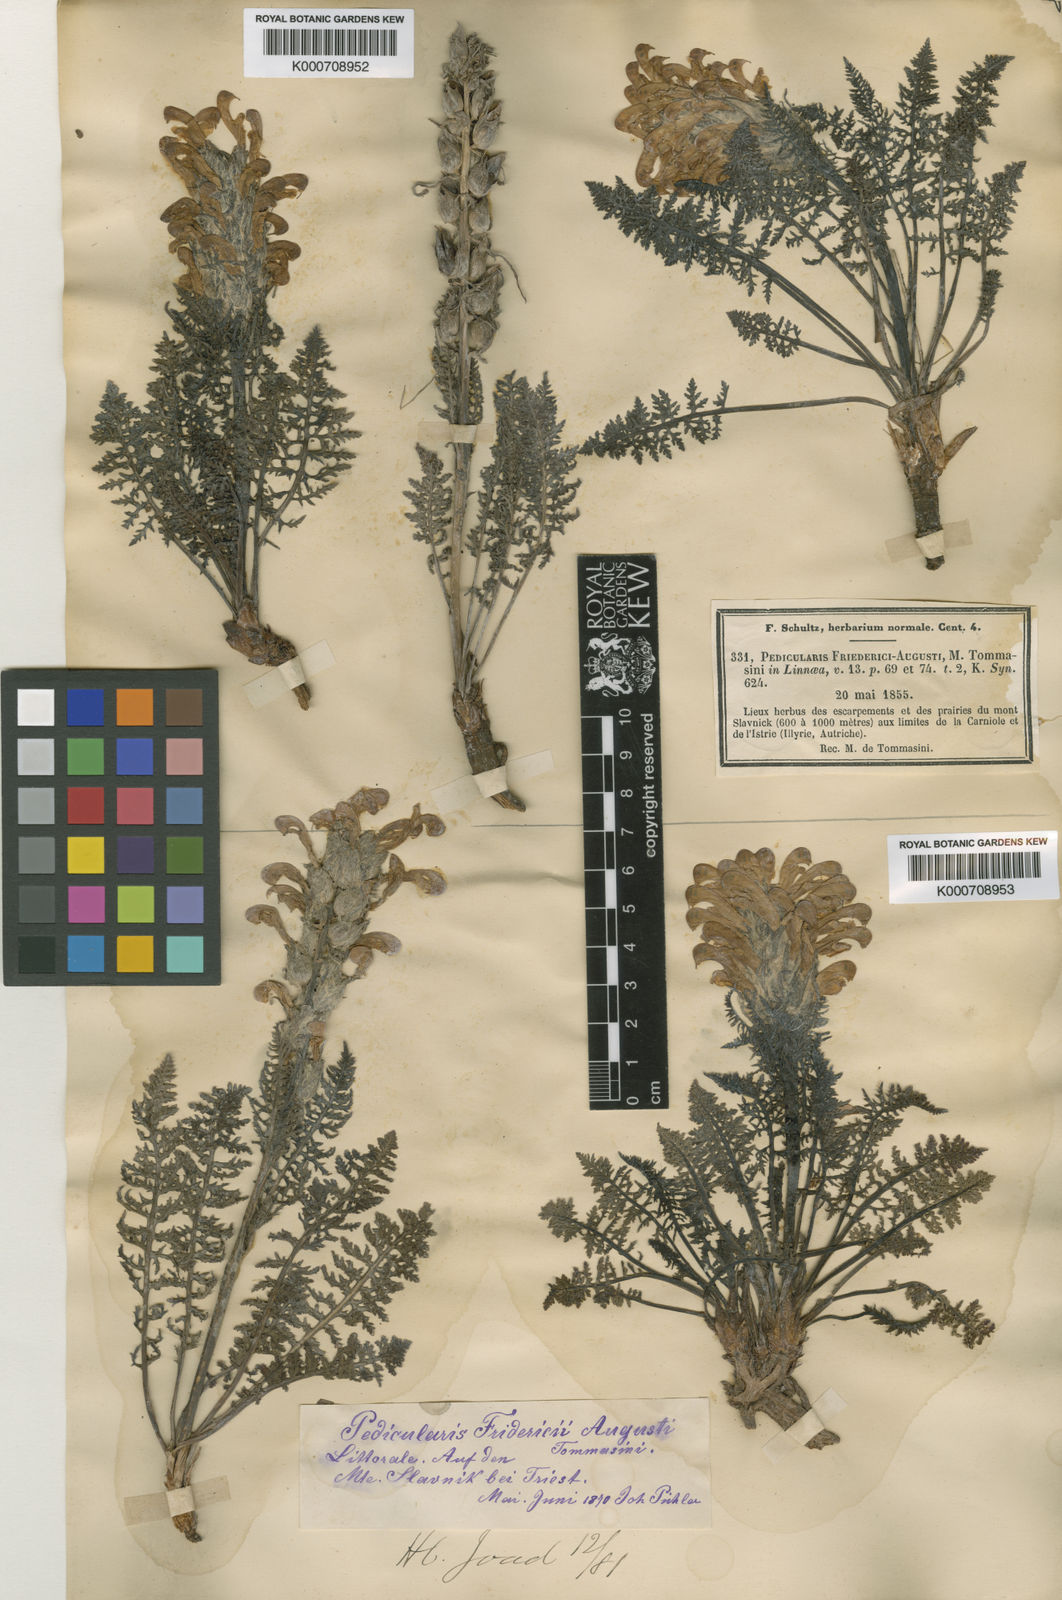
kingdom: Plantae
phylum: Tracheophyta
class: Magnoliopsida
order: Lamiales
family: Orobanchaceae
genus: Pedicularis
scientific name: Pedicularis friderici-augusti
